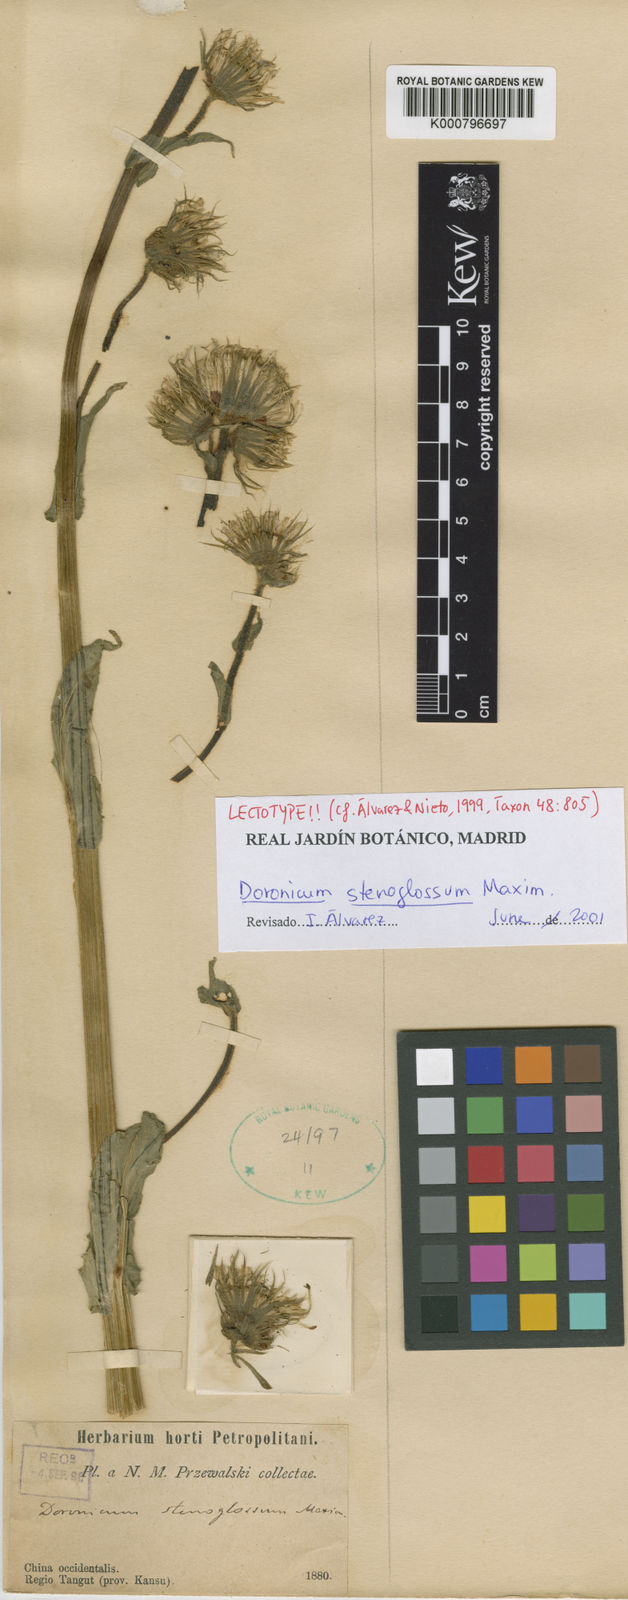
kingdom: Plantae
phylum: Tracheophyta
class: Magnoliopsida
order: Asterales
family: Asteraceae
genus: Doronicum
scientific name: Doronicum stenoglossum
